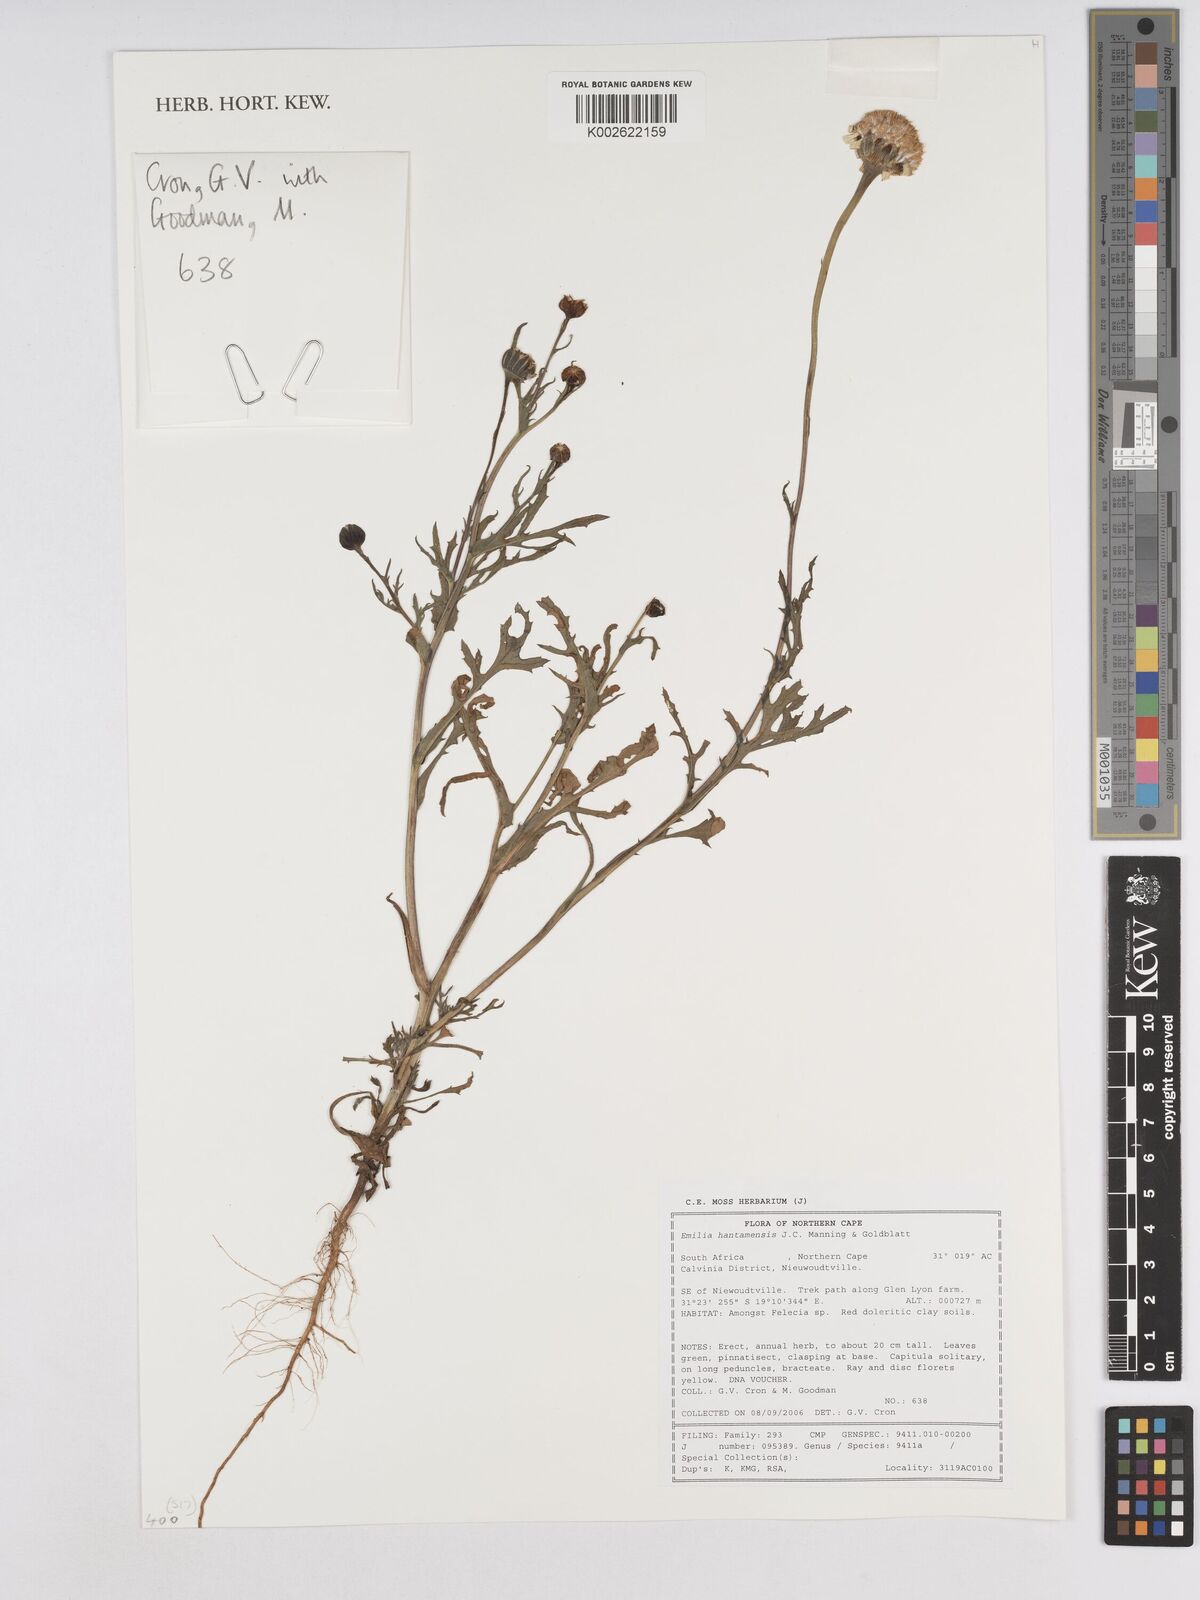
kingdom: Plantae
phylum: Tracheophyta
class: Magnoliopsida
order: Asterales
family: Asteraceae
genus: Bertilia
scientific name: Bertilia hantamensis
